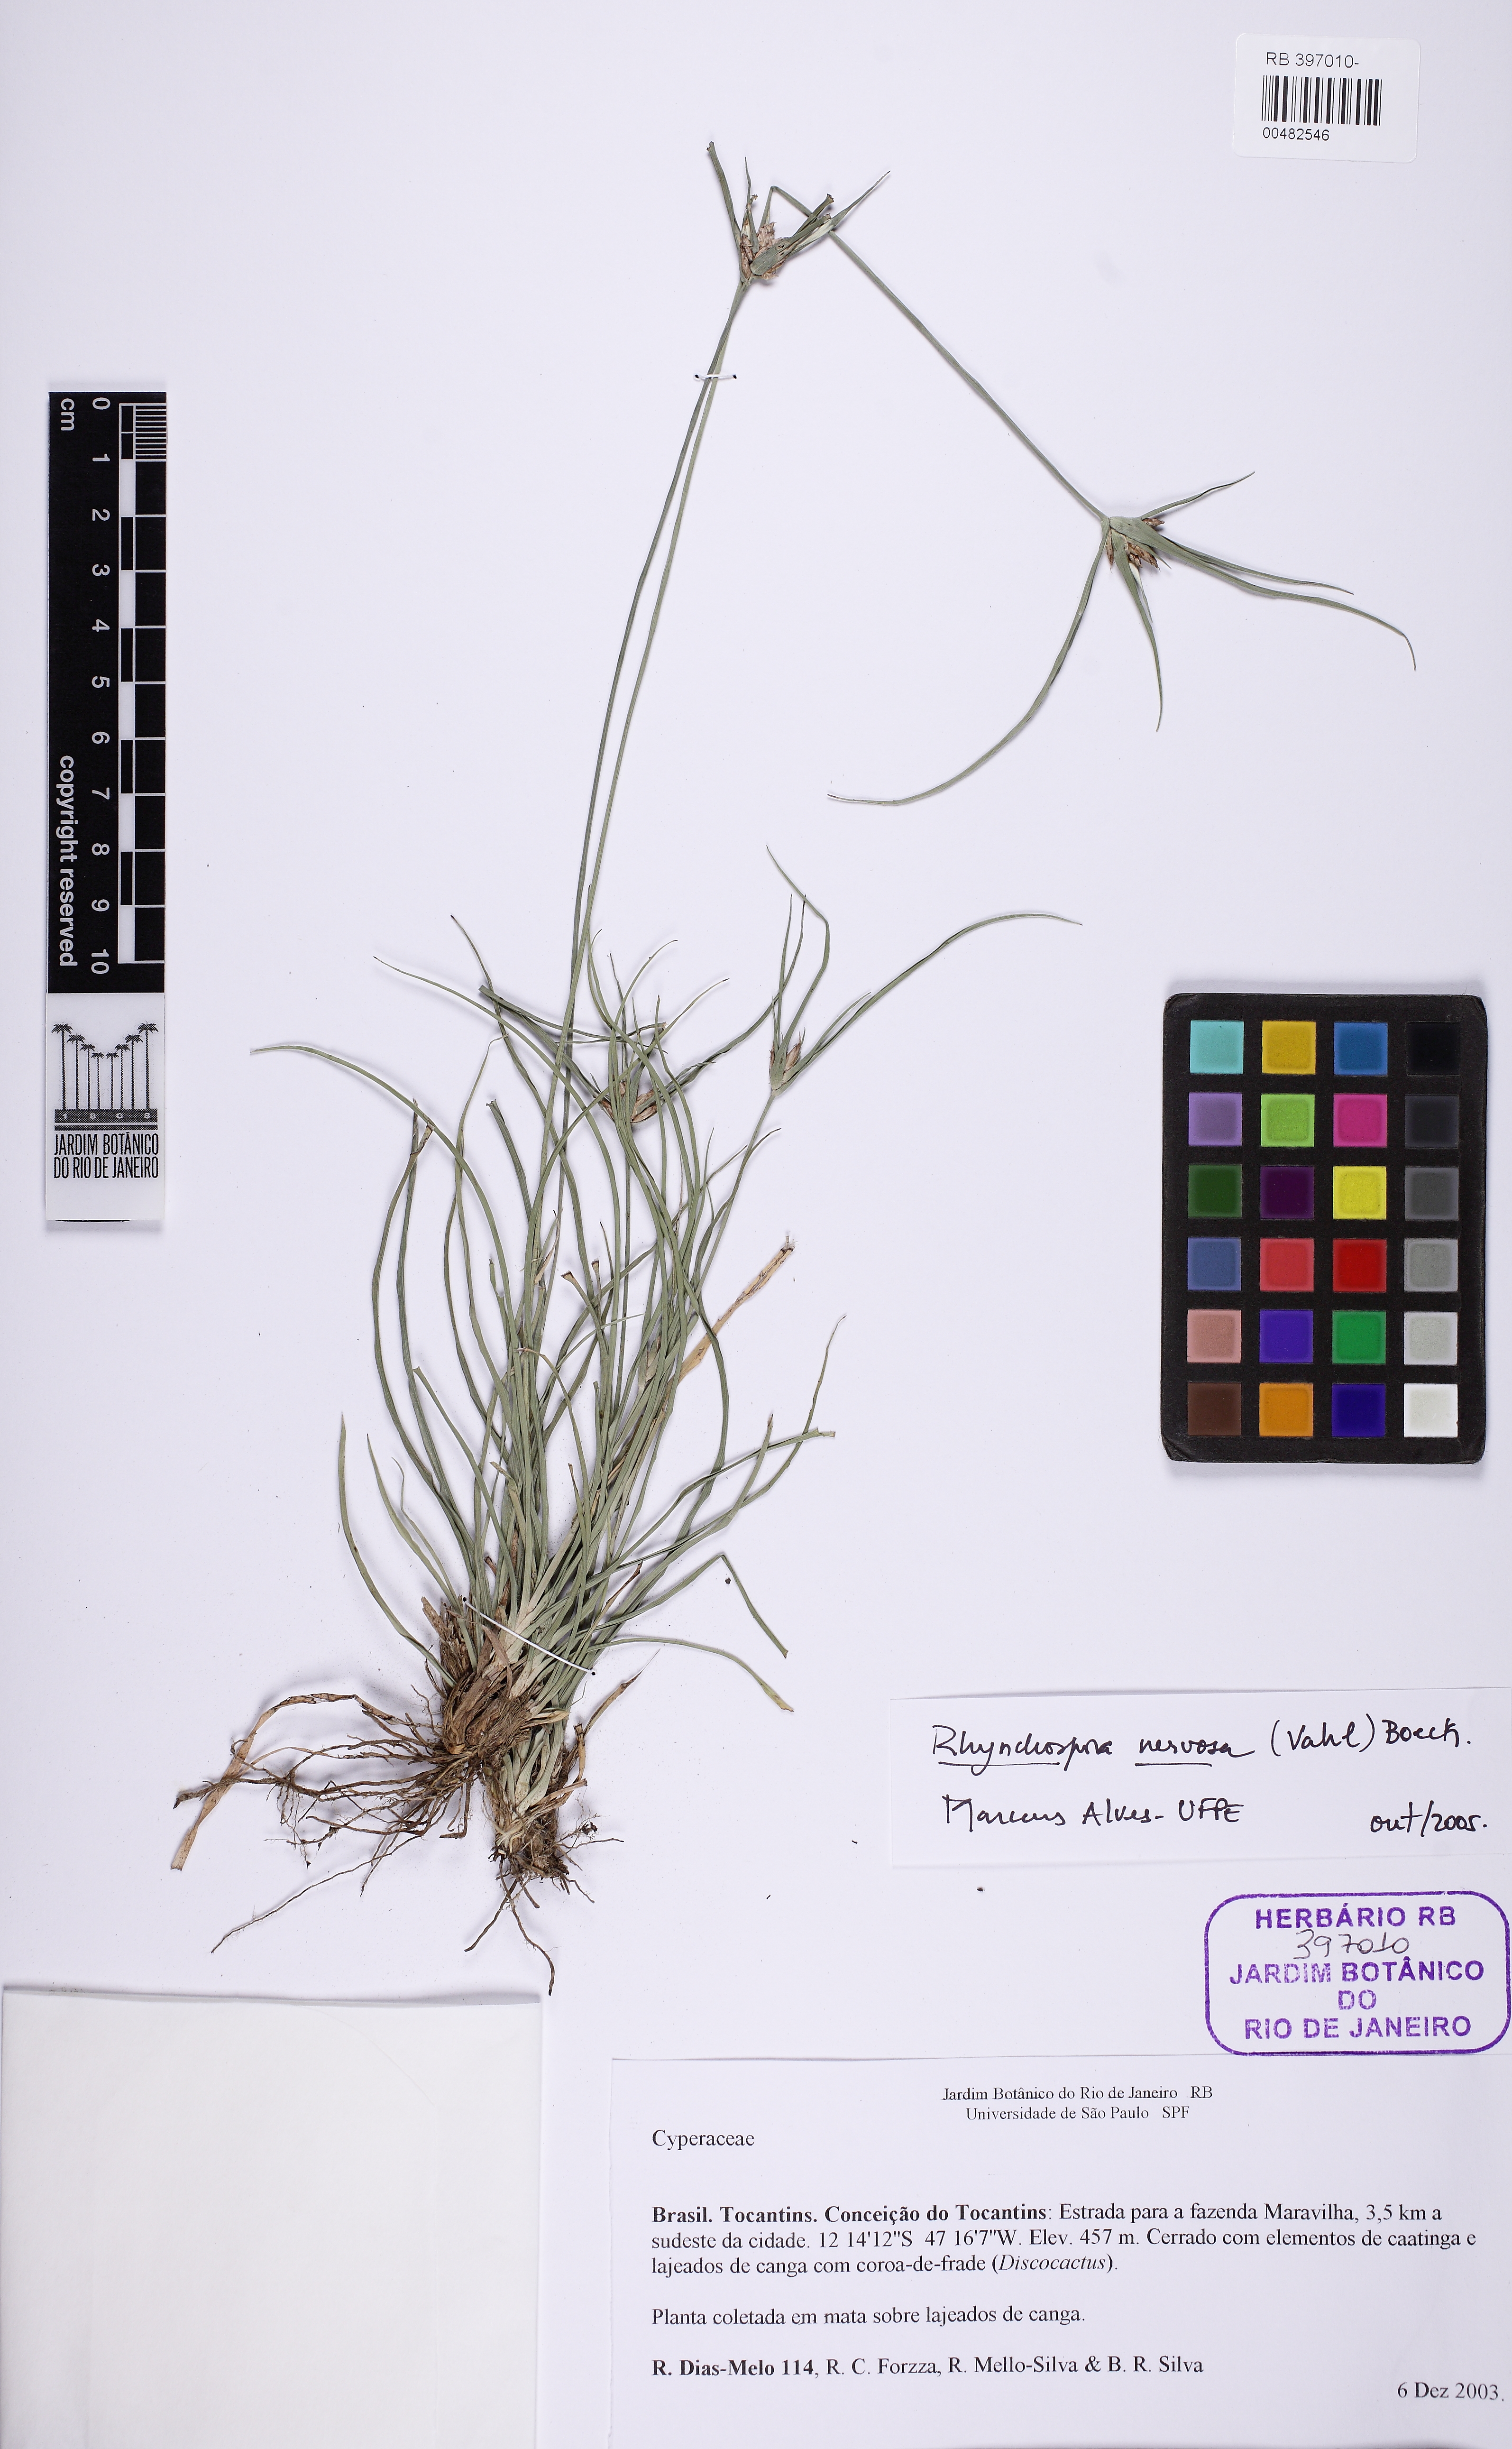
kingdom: Plantae
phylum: Tracheophyta
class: Liliopsida
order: Poales
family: Cyperaceae
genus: Rhynchospora
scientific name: Rhynchospora nervosa
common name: Star sedge
